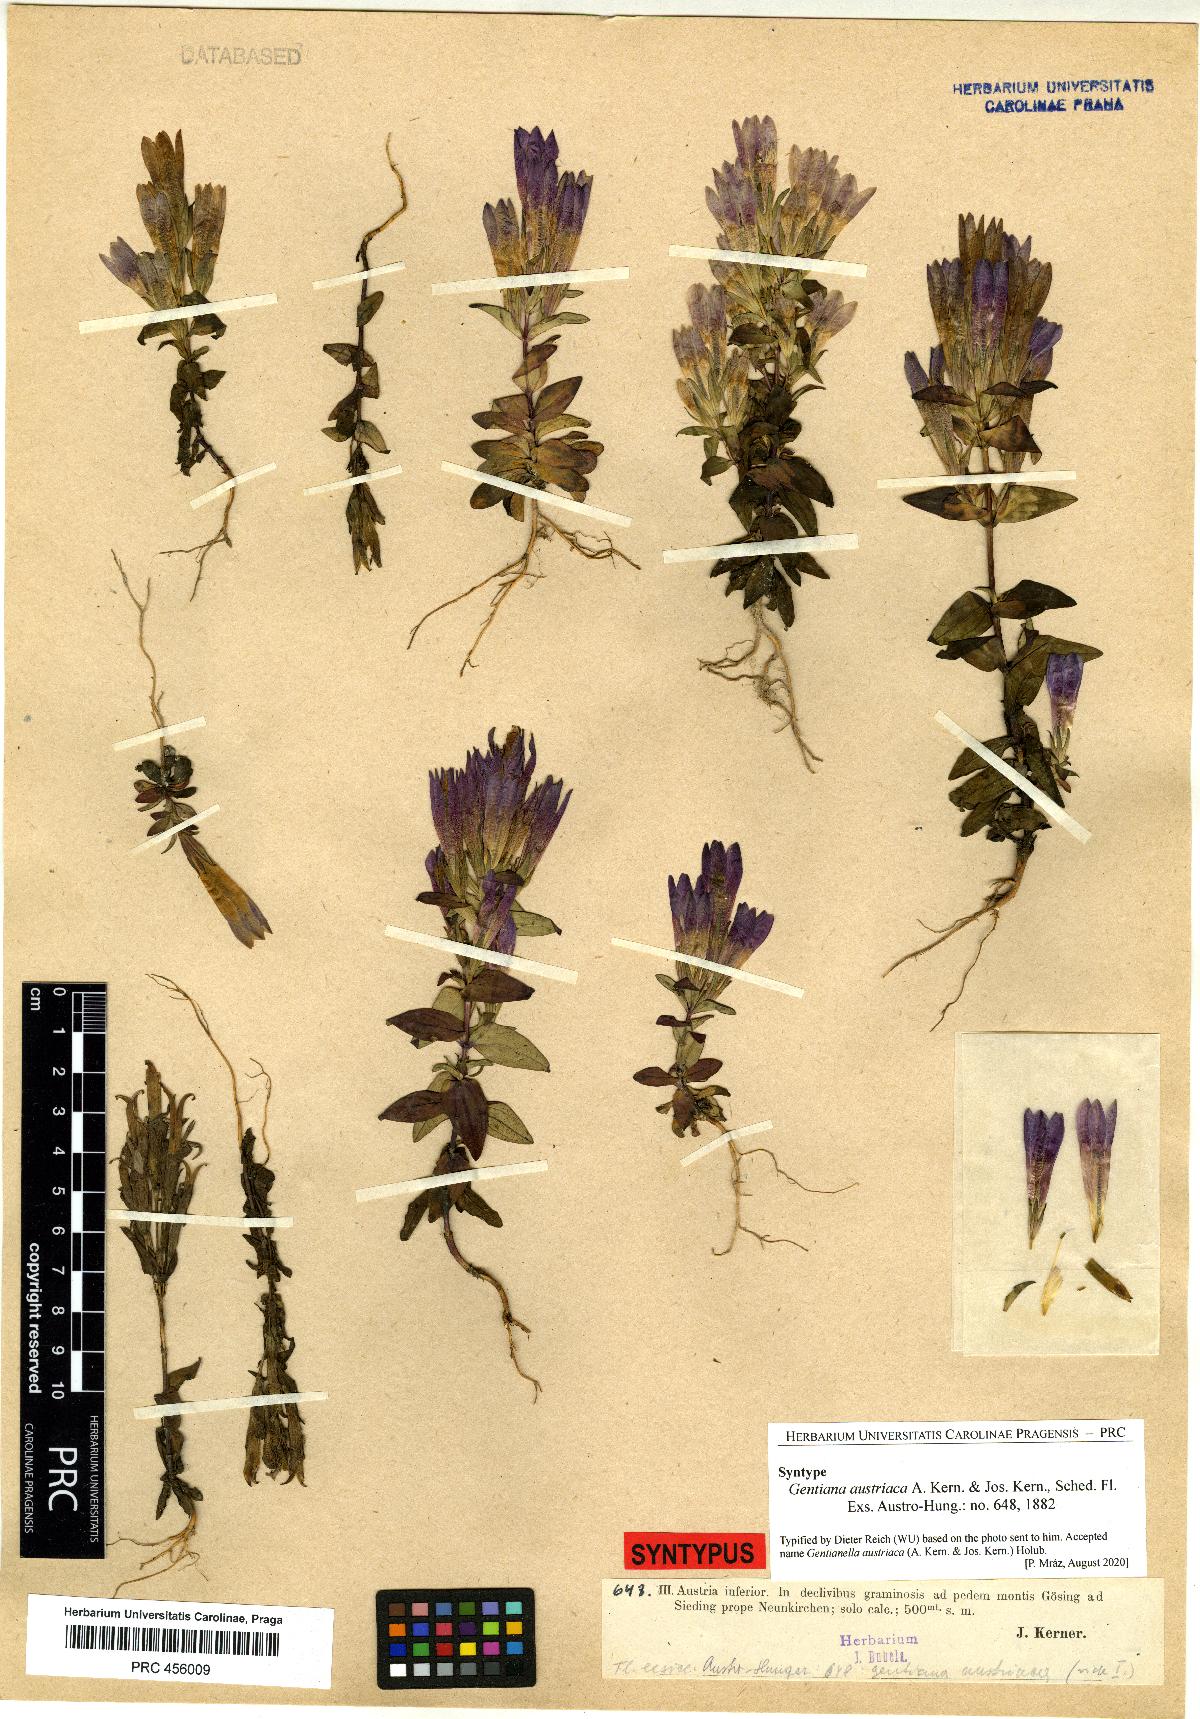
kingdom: Plantae
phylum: Tracheophyta
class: Magnoliopsida
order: Gentianales
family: Gentianaceae
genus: Gentianella
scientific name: Gentianella austriaca
